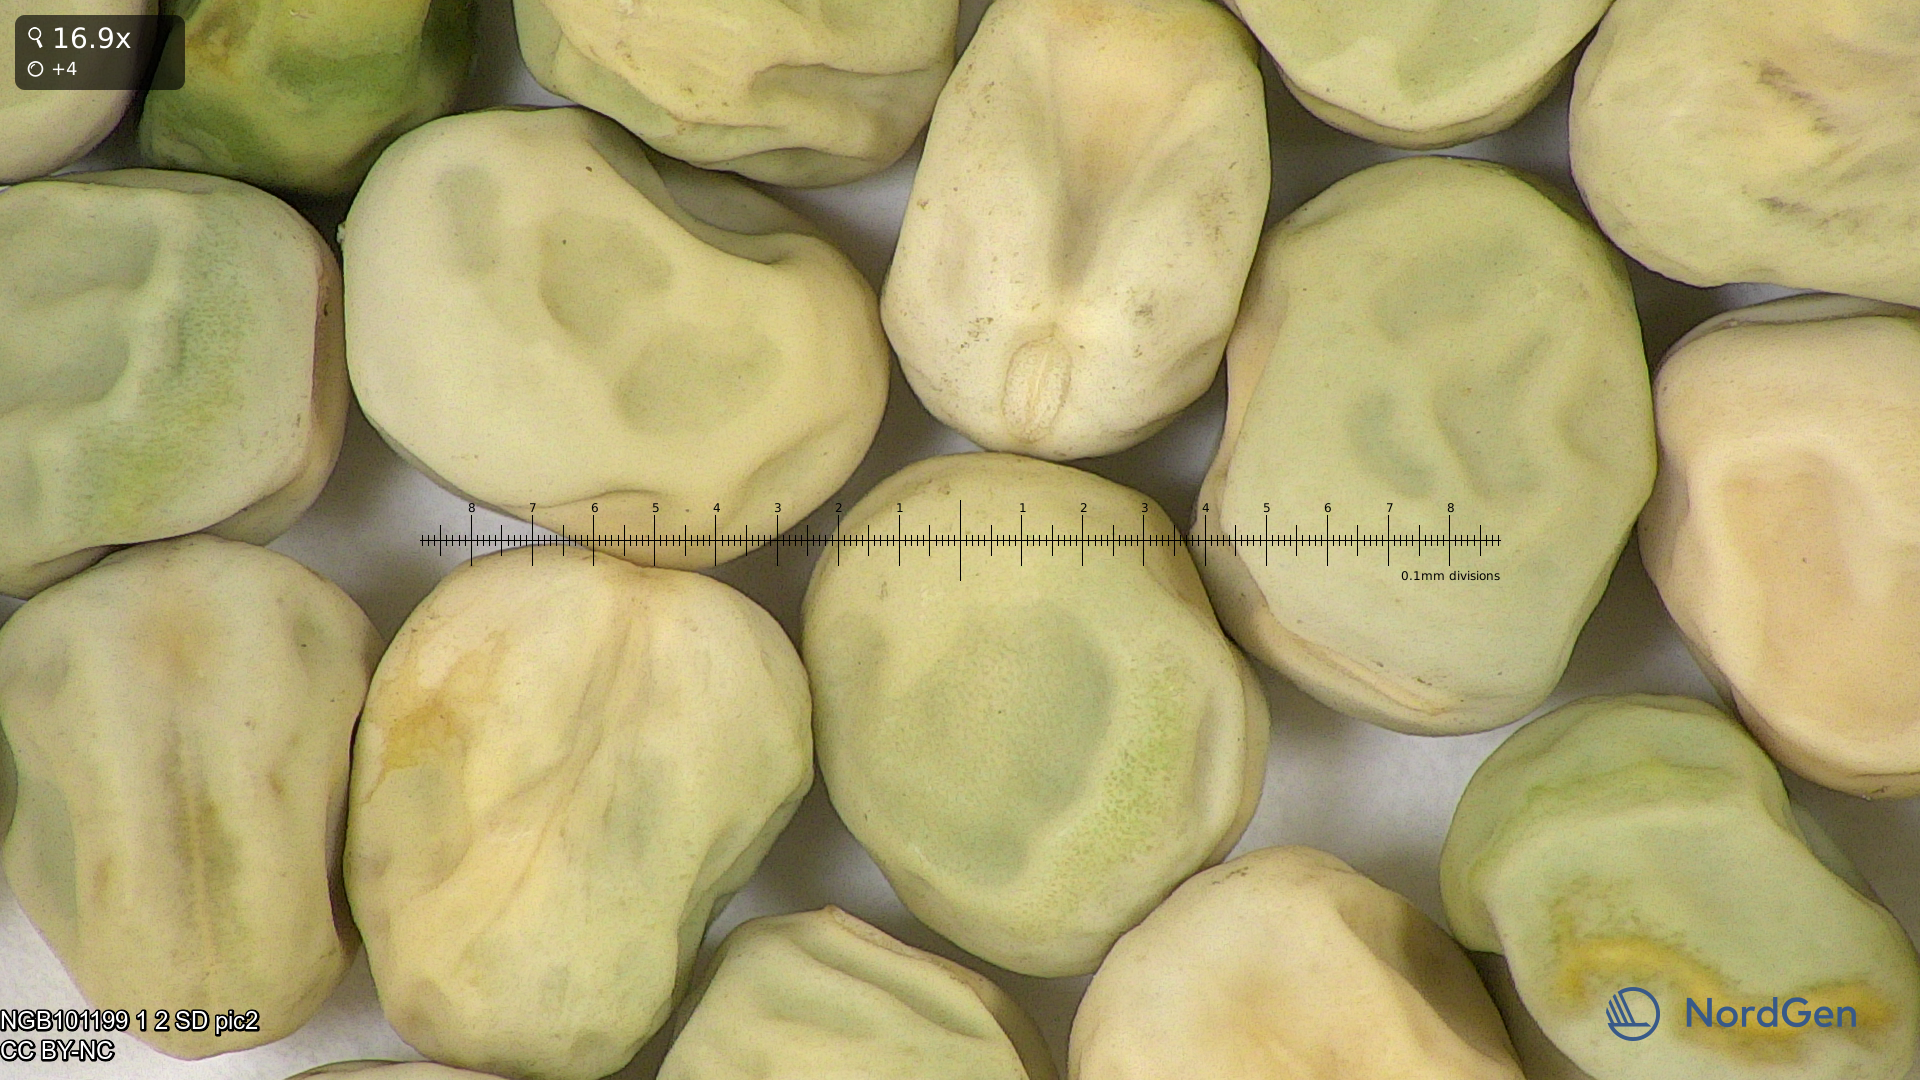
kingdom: Plantae
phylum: Tracheophyta
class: Magnoliopsida
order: Fabales
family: Fabaceae
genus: Lathyrus
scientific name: Lathyrus oleraceus
